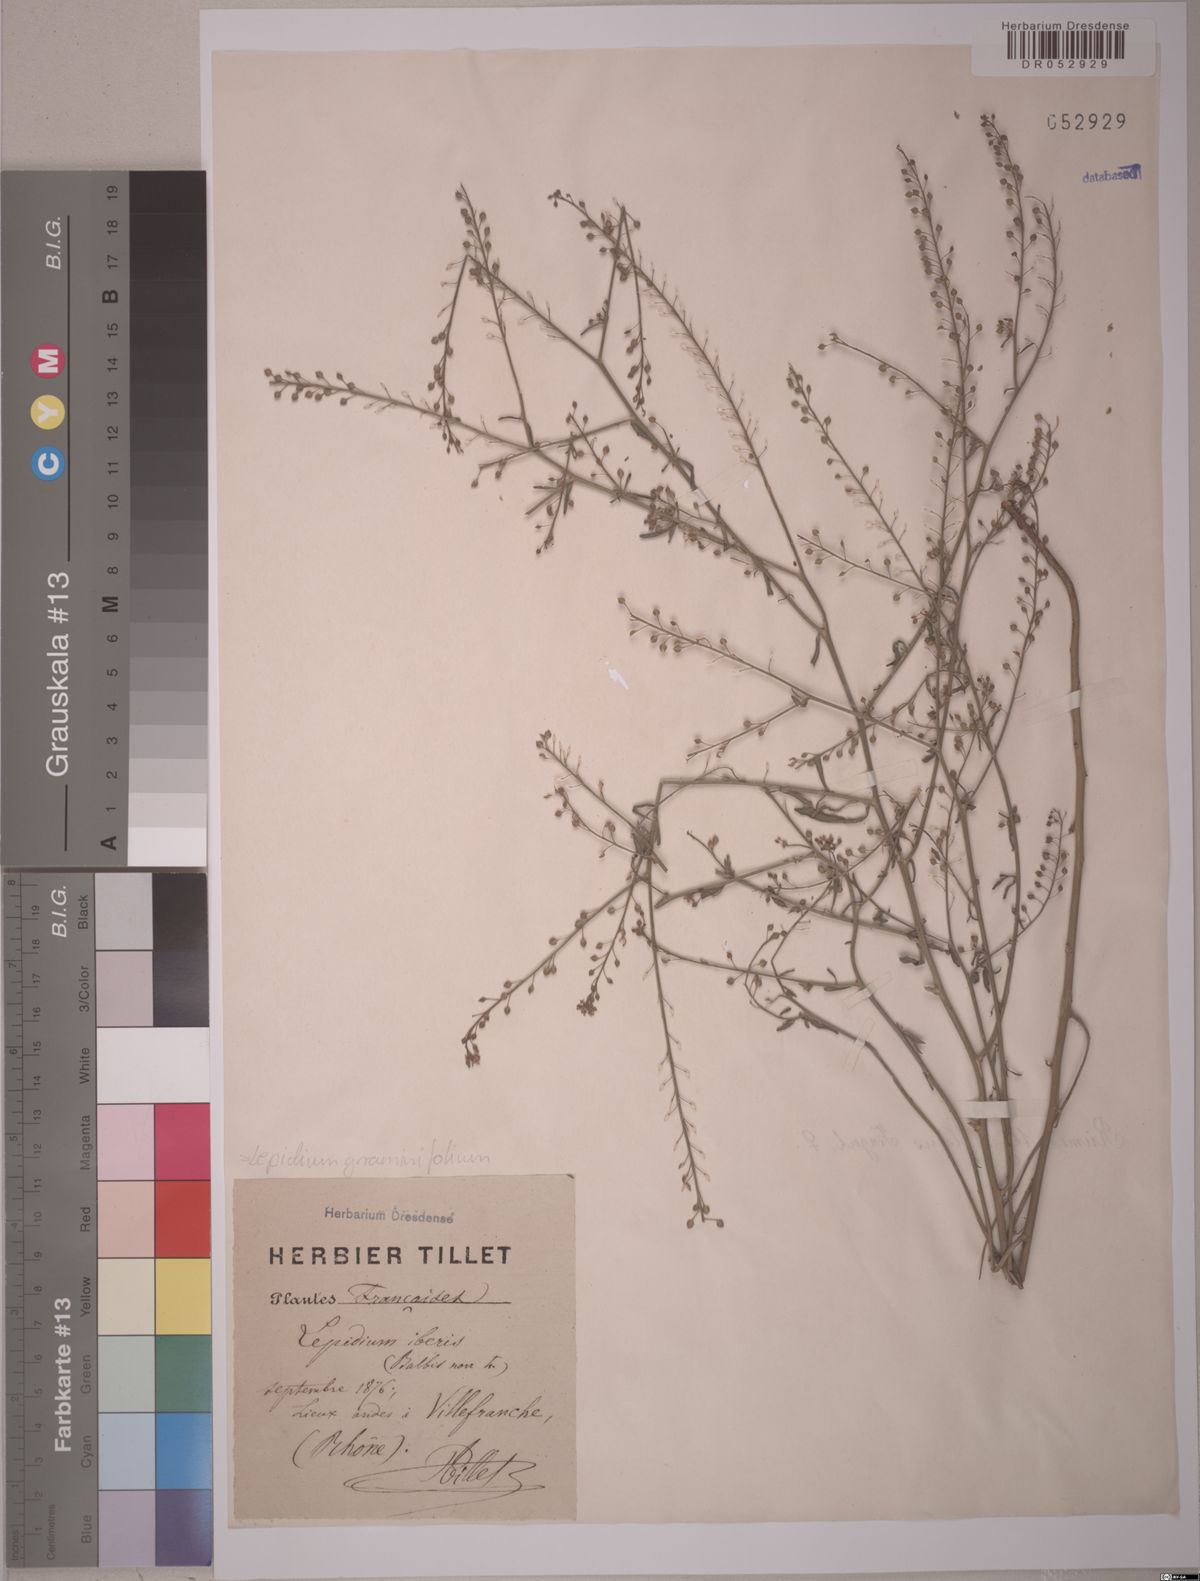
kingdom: Plantae
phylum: Tracheophyta
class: Magnoliopsida
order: Brassicales
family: Brassicaceae
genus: Lepidium
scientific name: Lepidium graminifolium
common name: Tall pepperwort
